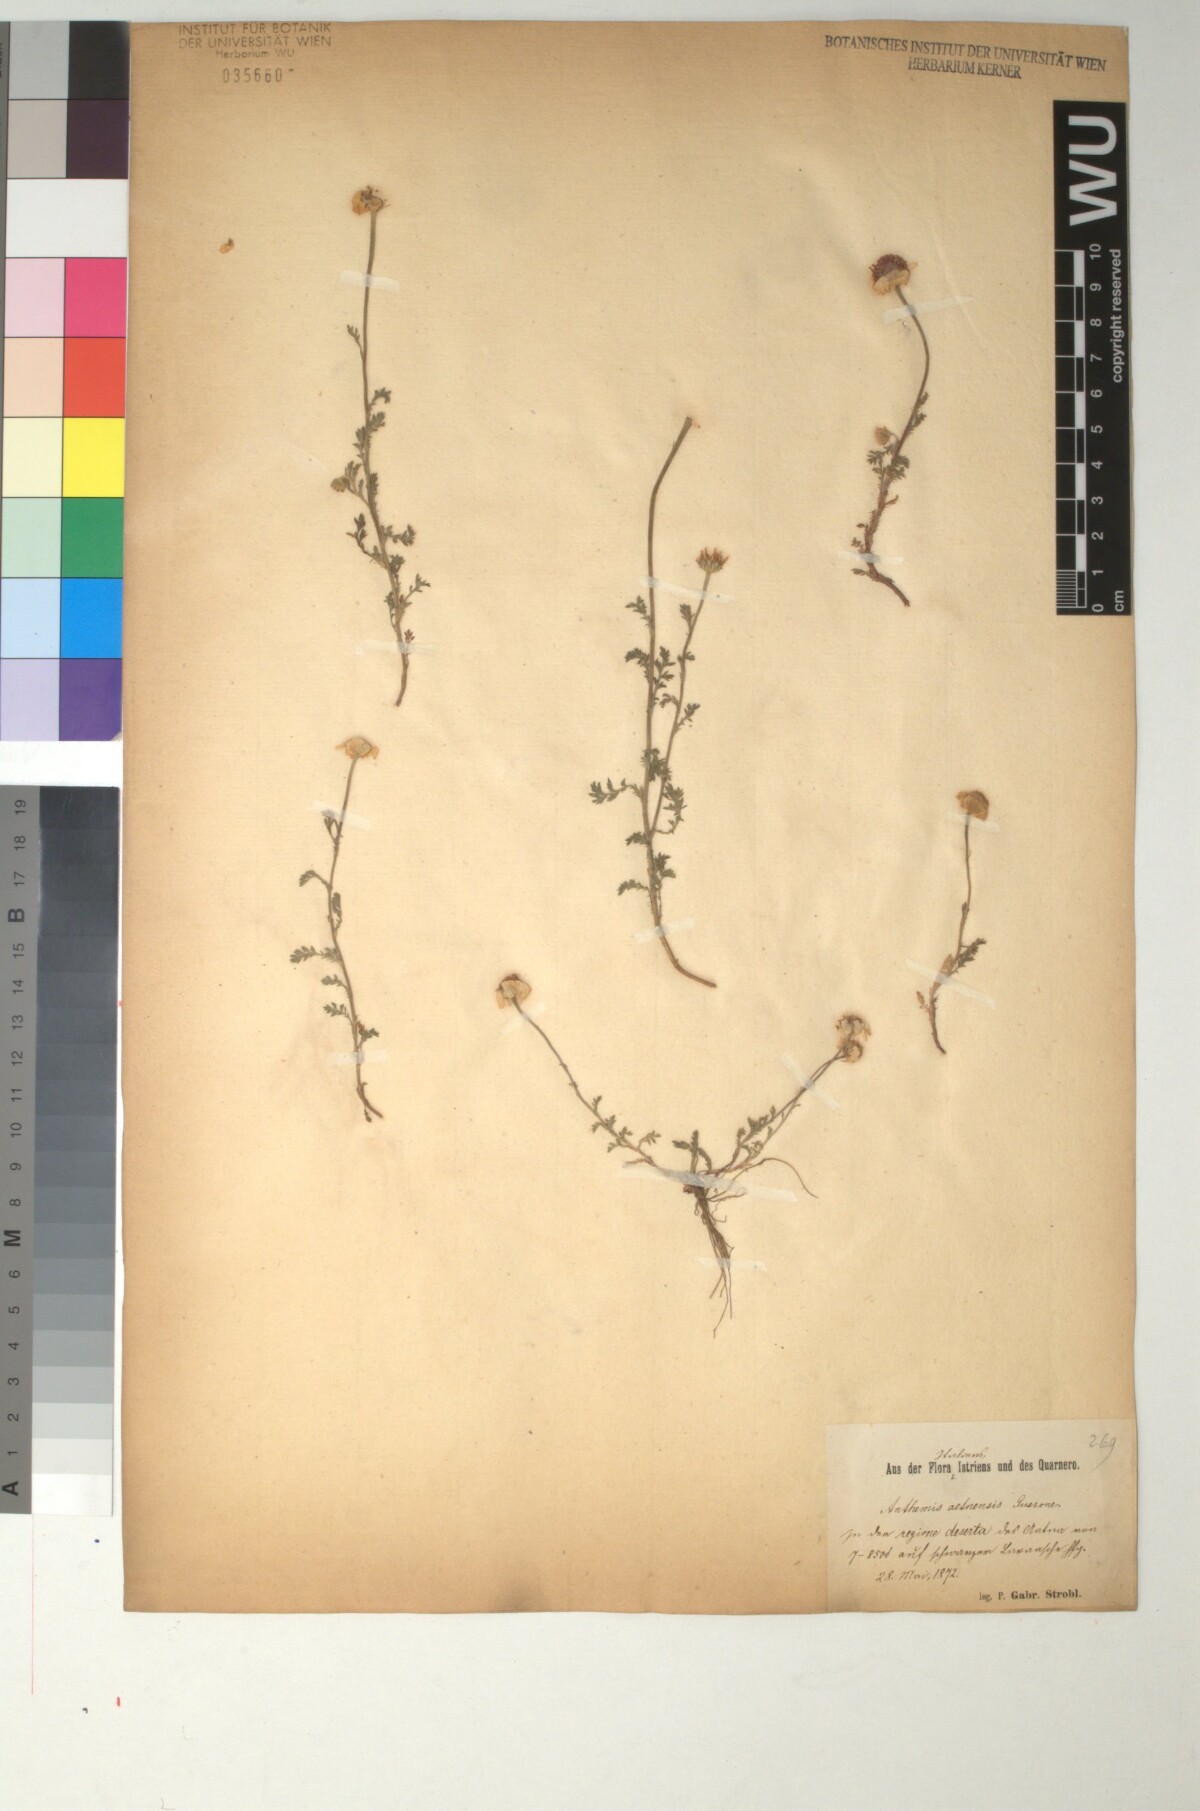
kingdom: Plantae
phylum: Tracheophyta
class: Magnoliopsida
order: Asterales
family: Asteraceae
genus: Anthemis
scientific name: Anthemis aetnensis
